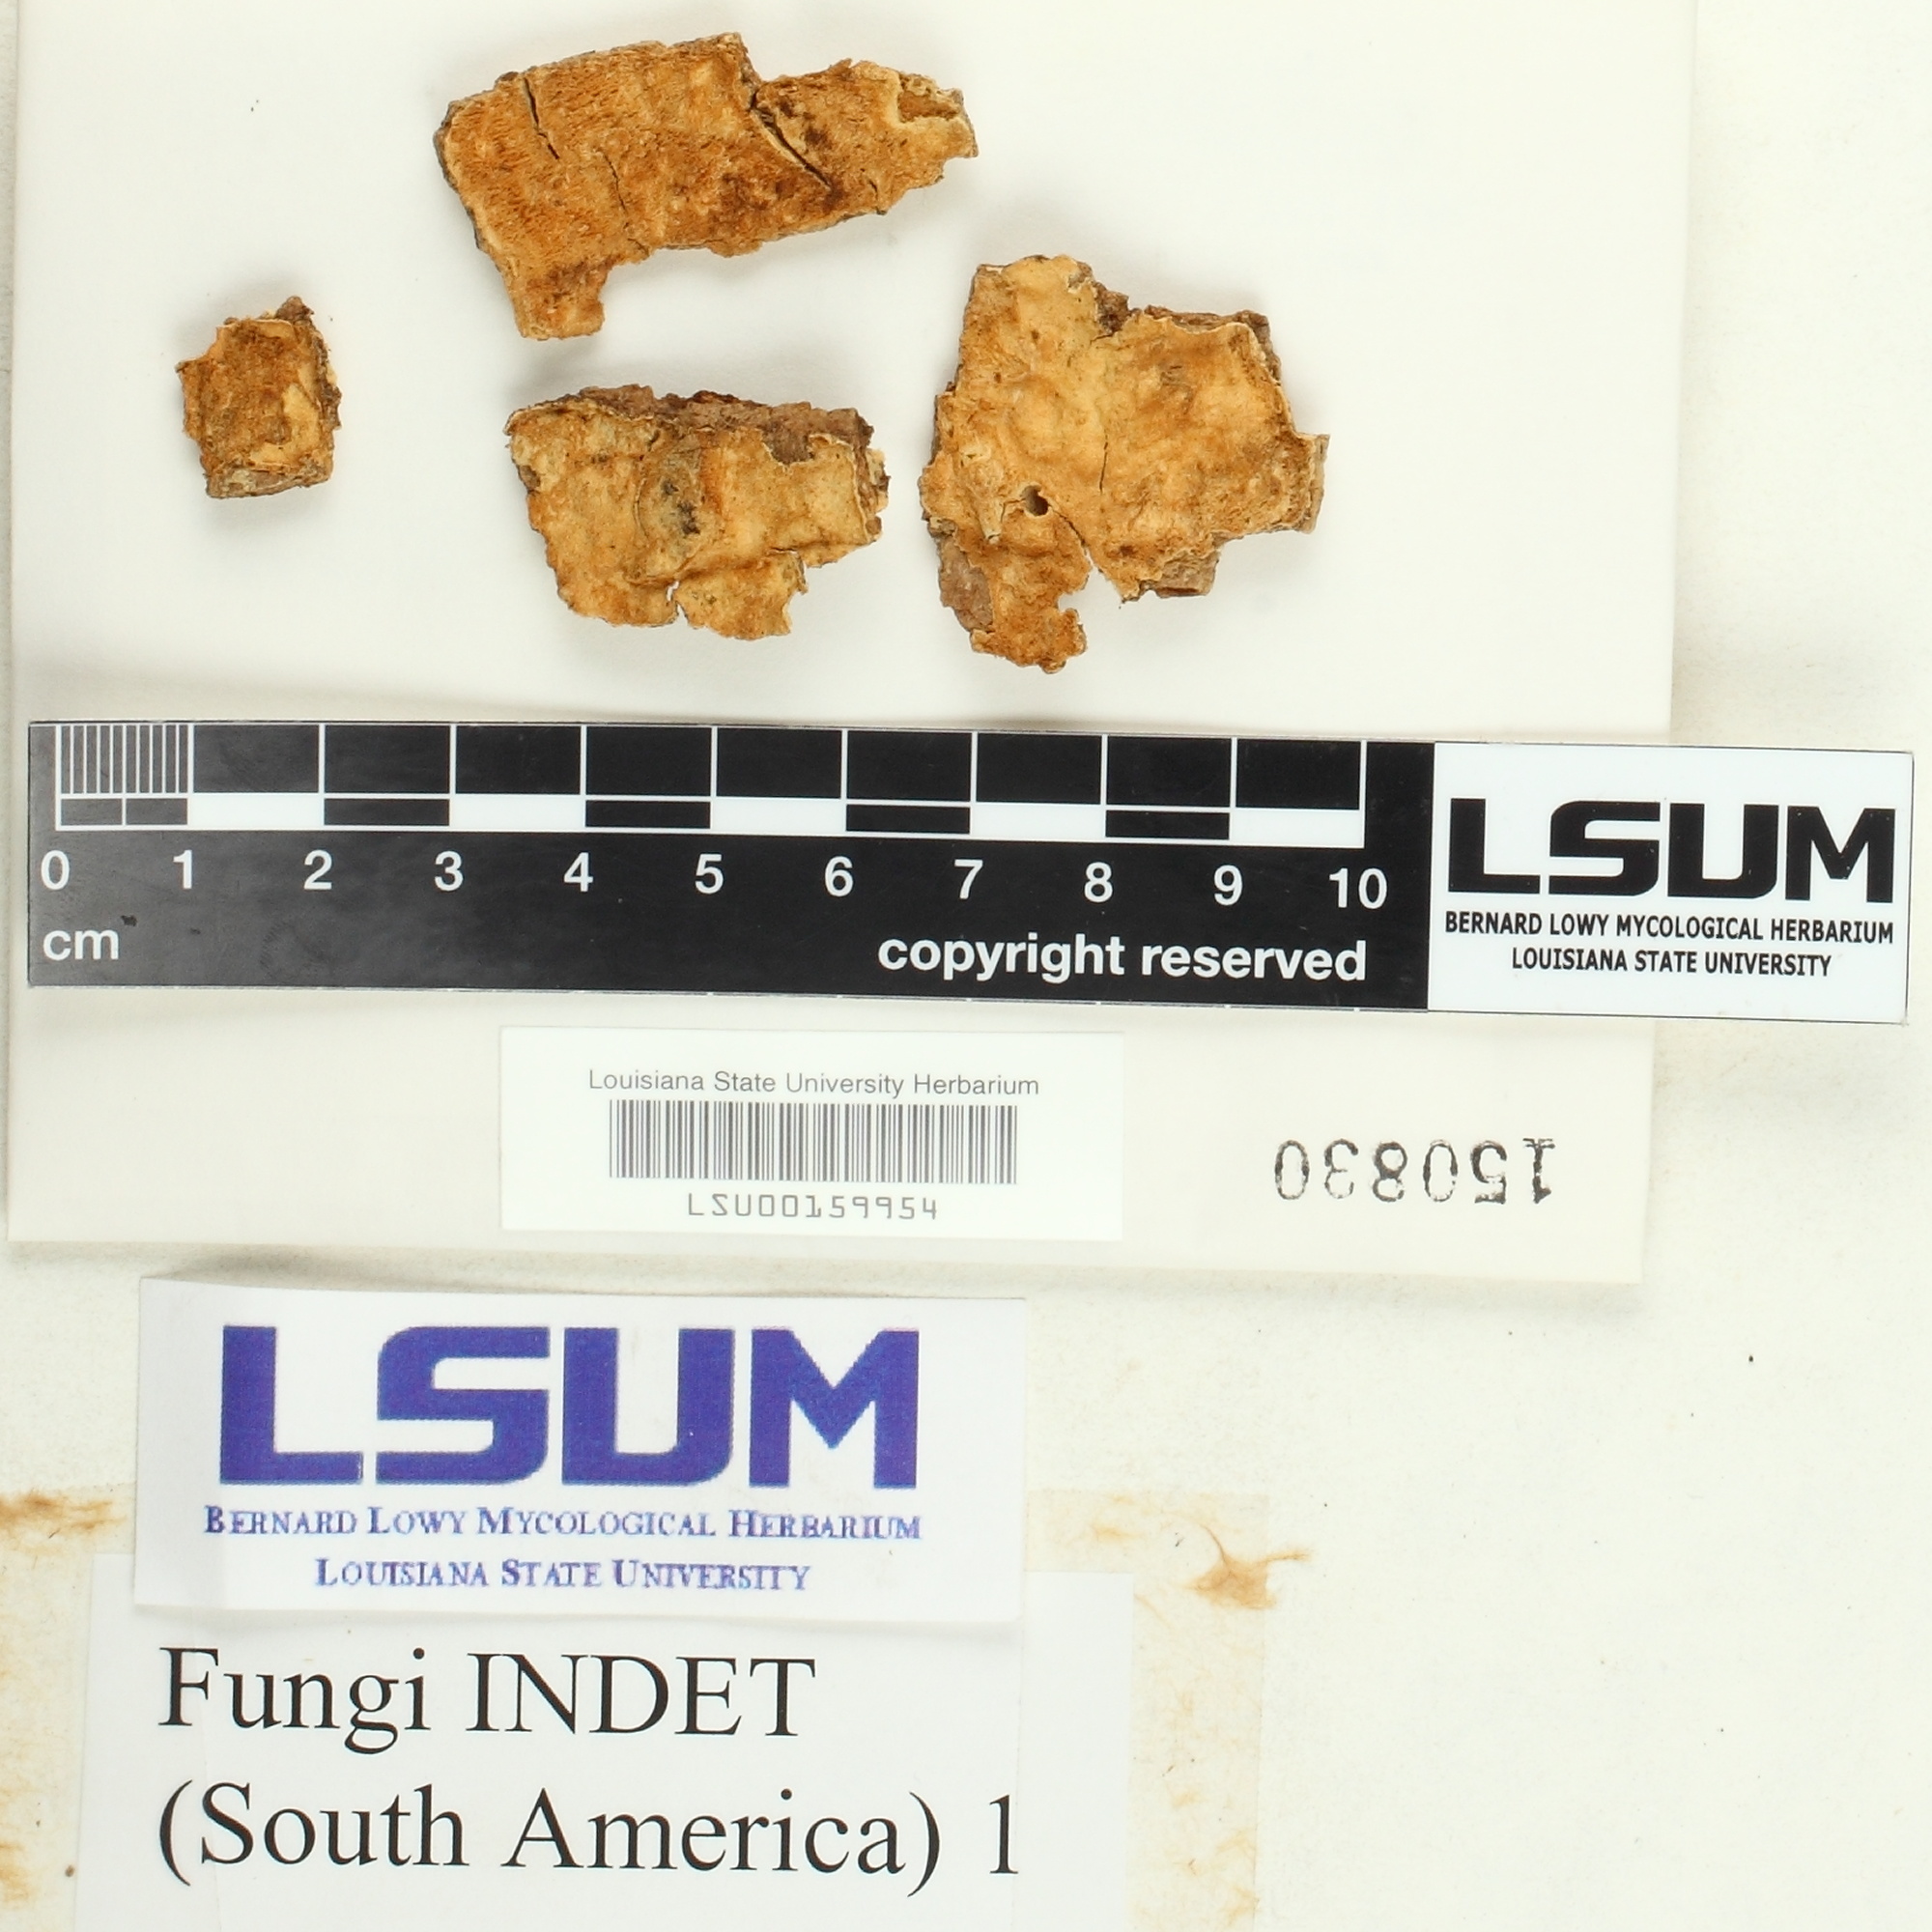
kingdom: Fungi
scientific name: Fungi
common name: Fungi
